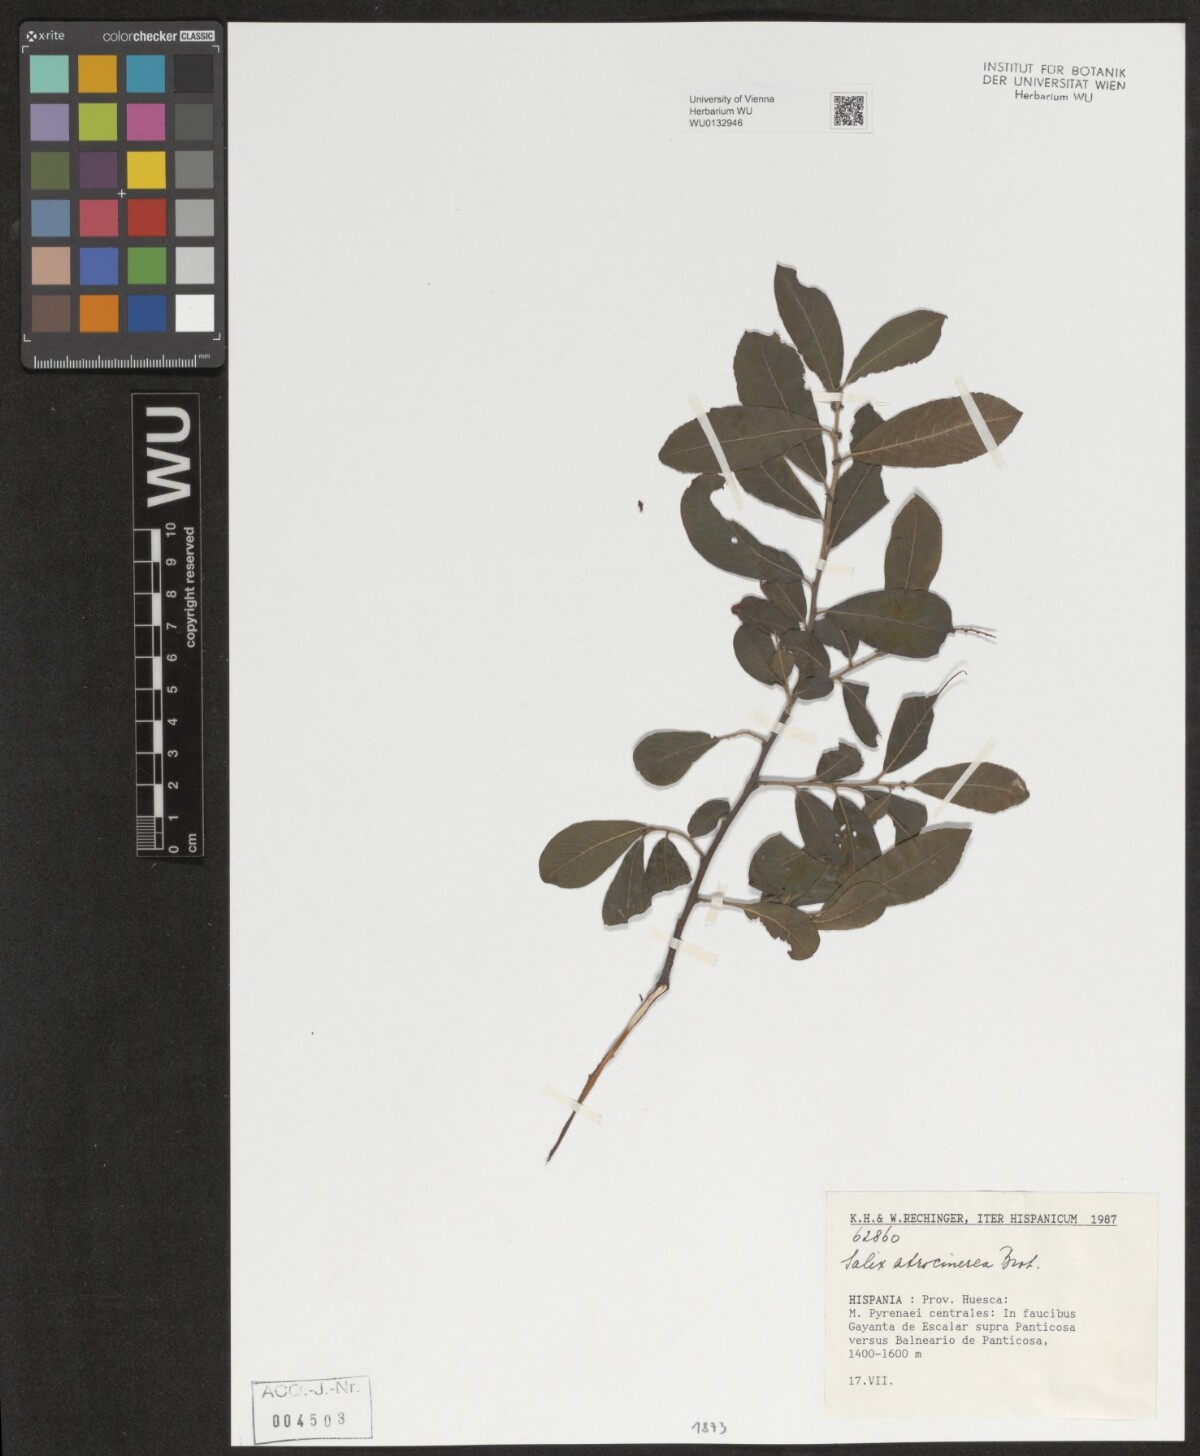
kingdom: Plantae
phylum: Tracheophyta
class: Magnoliopsida
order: Malpighiales
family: Salicaceae
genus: Salix
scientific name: Salix atrocinerea
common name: Rusty willow
